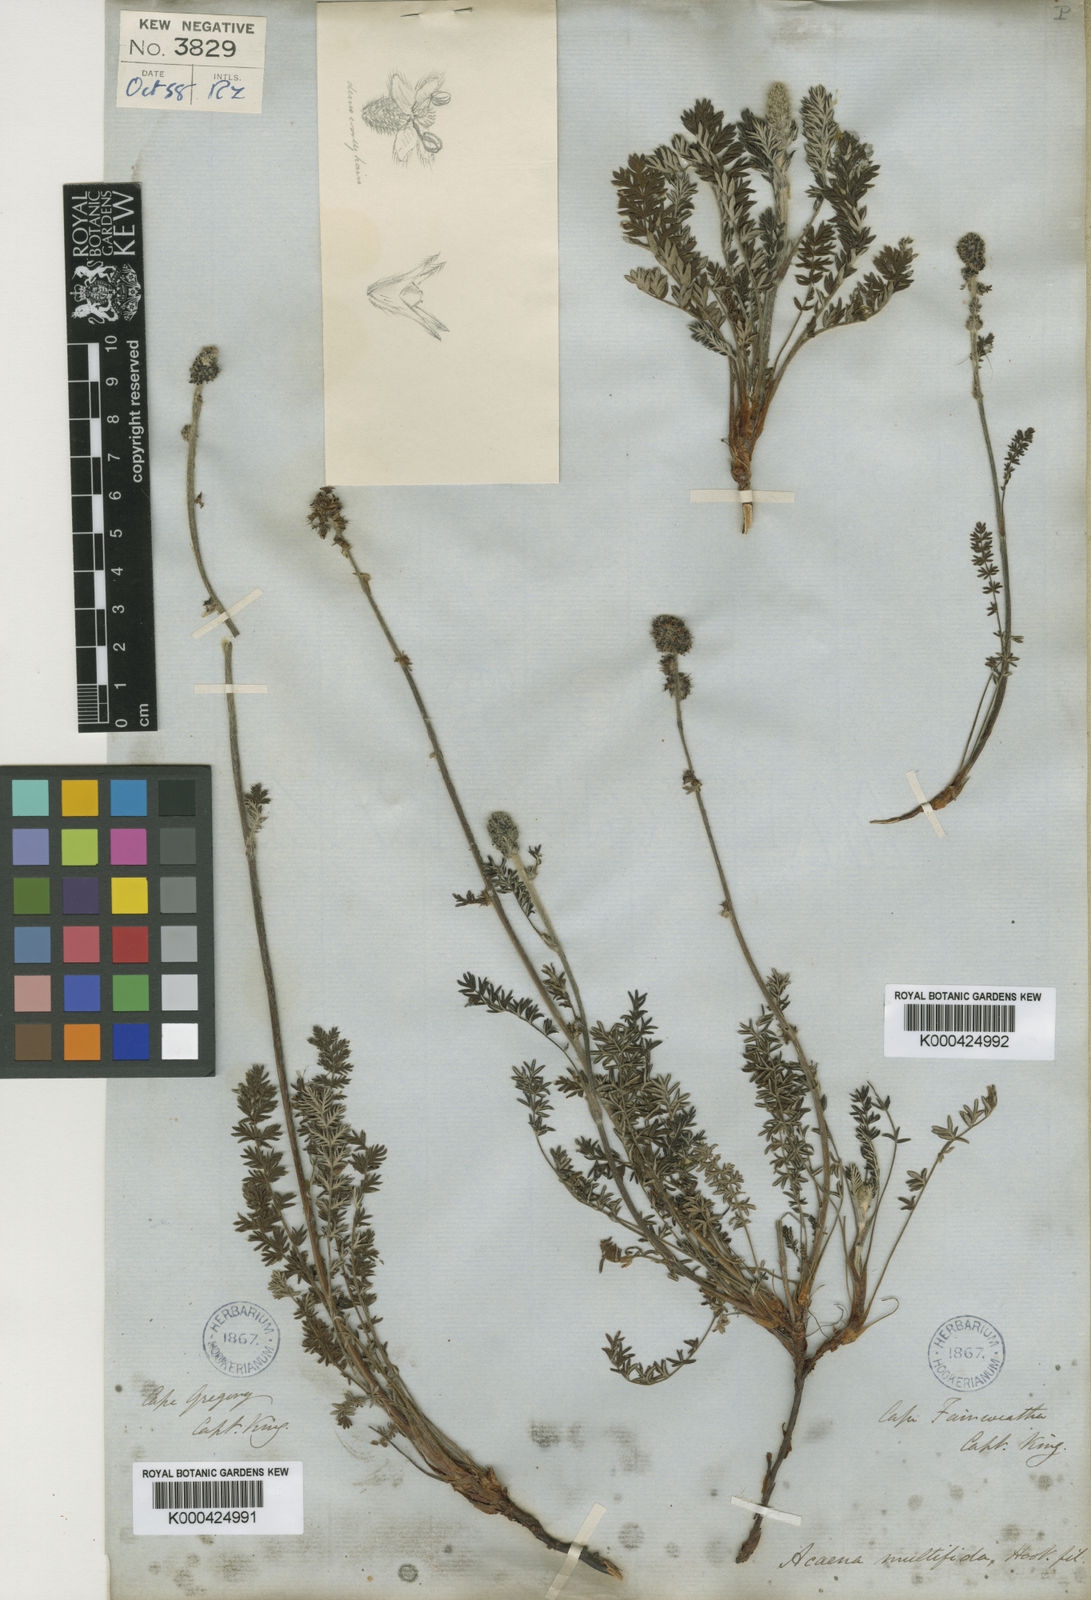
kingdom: Plantae
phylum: Tracheophyta
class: Magnoliopsida
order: Rosales
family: Rosaceae
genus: Acaena
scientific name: Acaena pinnatifida
